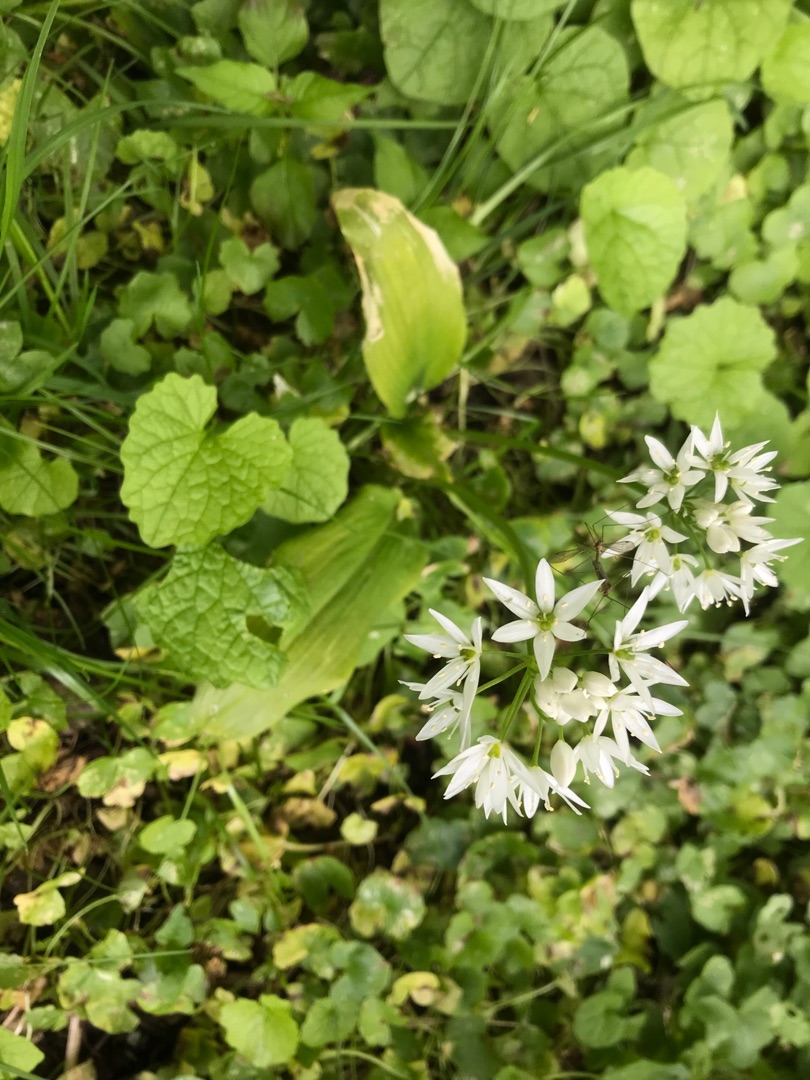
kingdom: Plantae
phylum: Tracheophyta
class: Liliopsida
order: Asparagales
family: Amaryllidaceae
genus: Allium
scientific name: Allium ursinum
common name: Rams-løg
